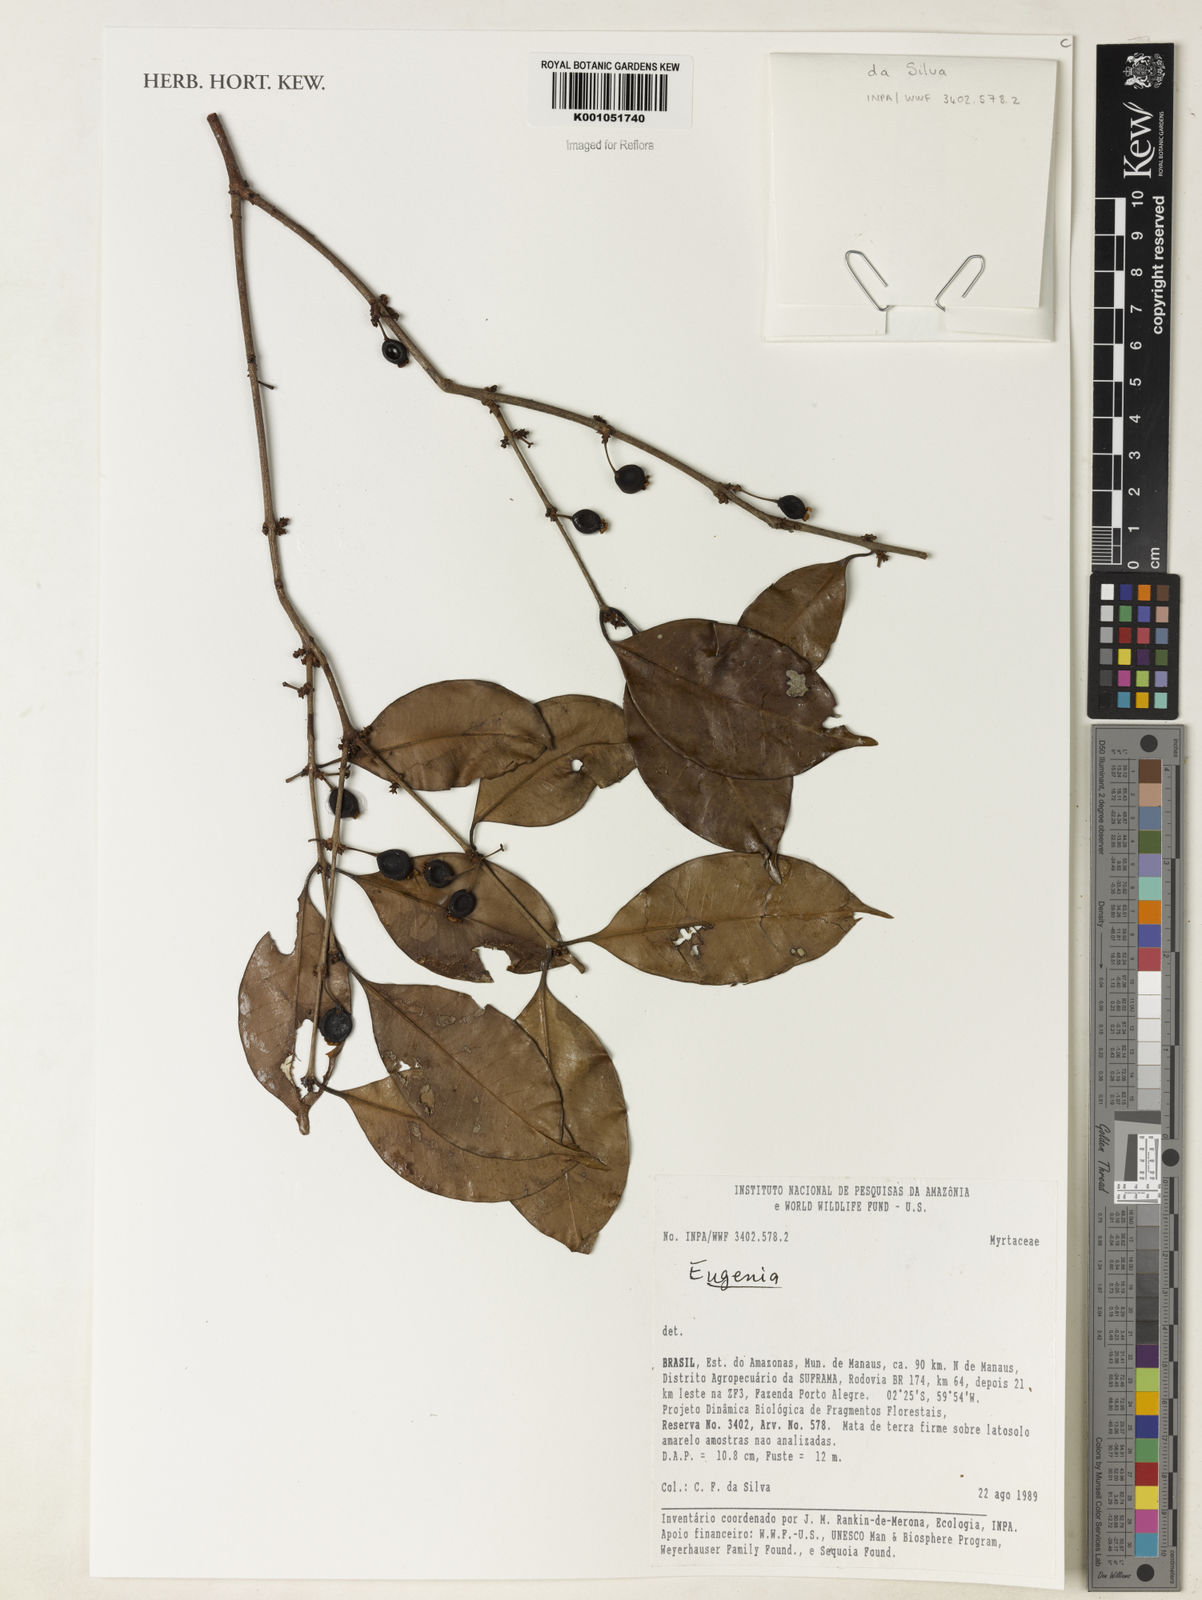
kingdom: Plantae
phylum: Tracheophyta
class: Magnoliopsida
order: Myrtales
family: Myrtaceae
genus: Eugenia
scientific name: Eugenia cerasiflora
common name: Cherry-of-the-rio-grande
